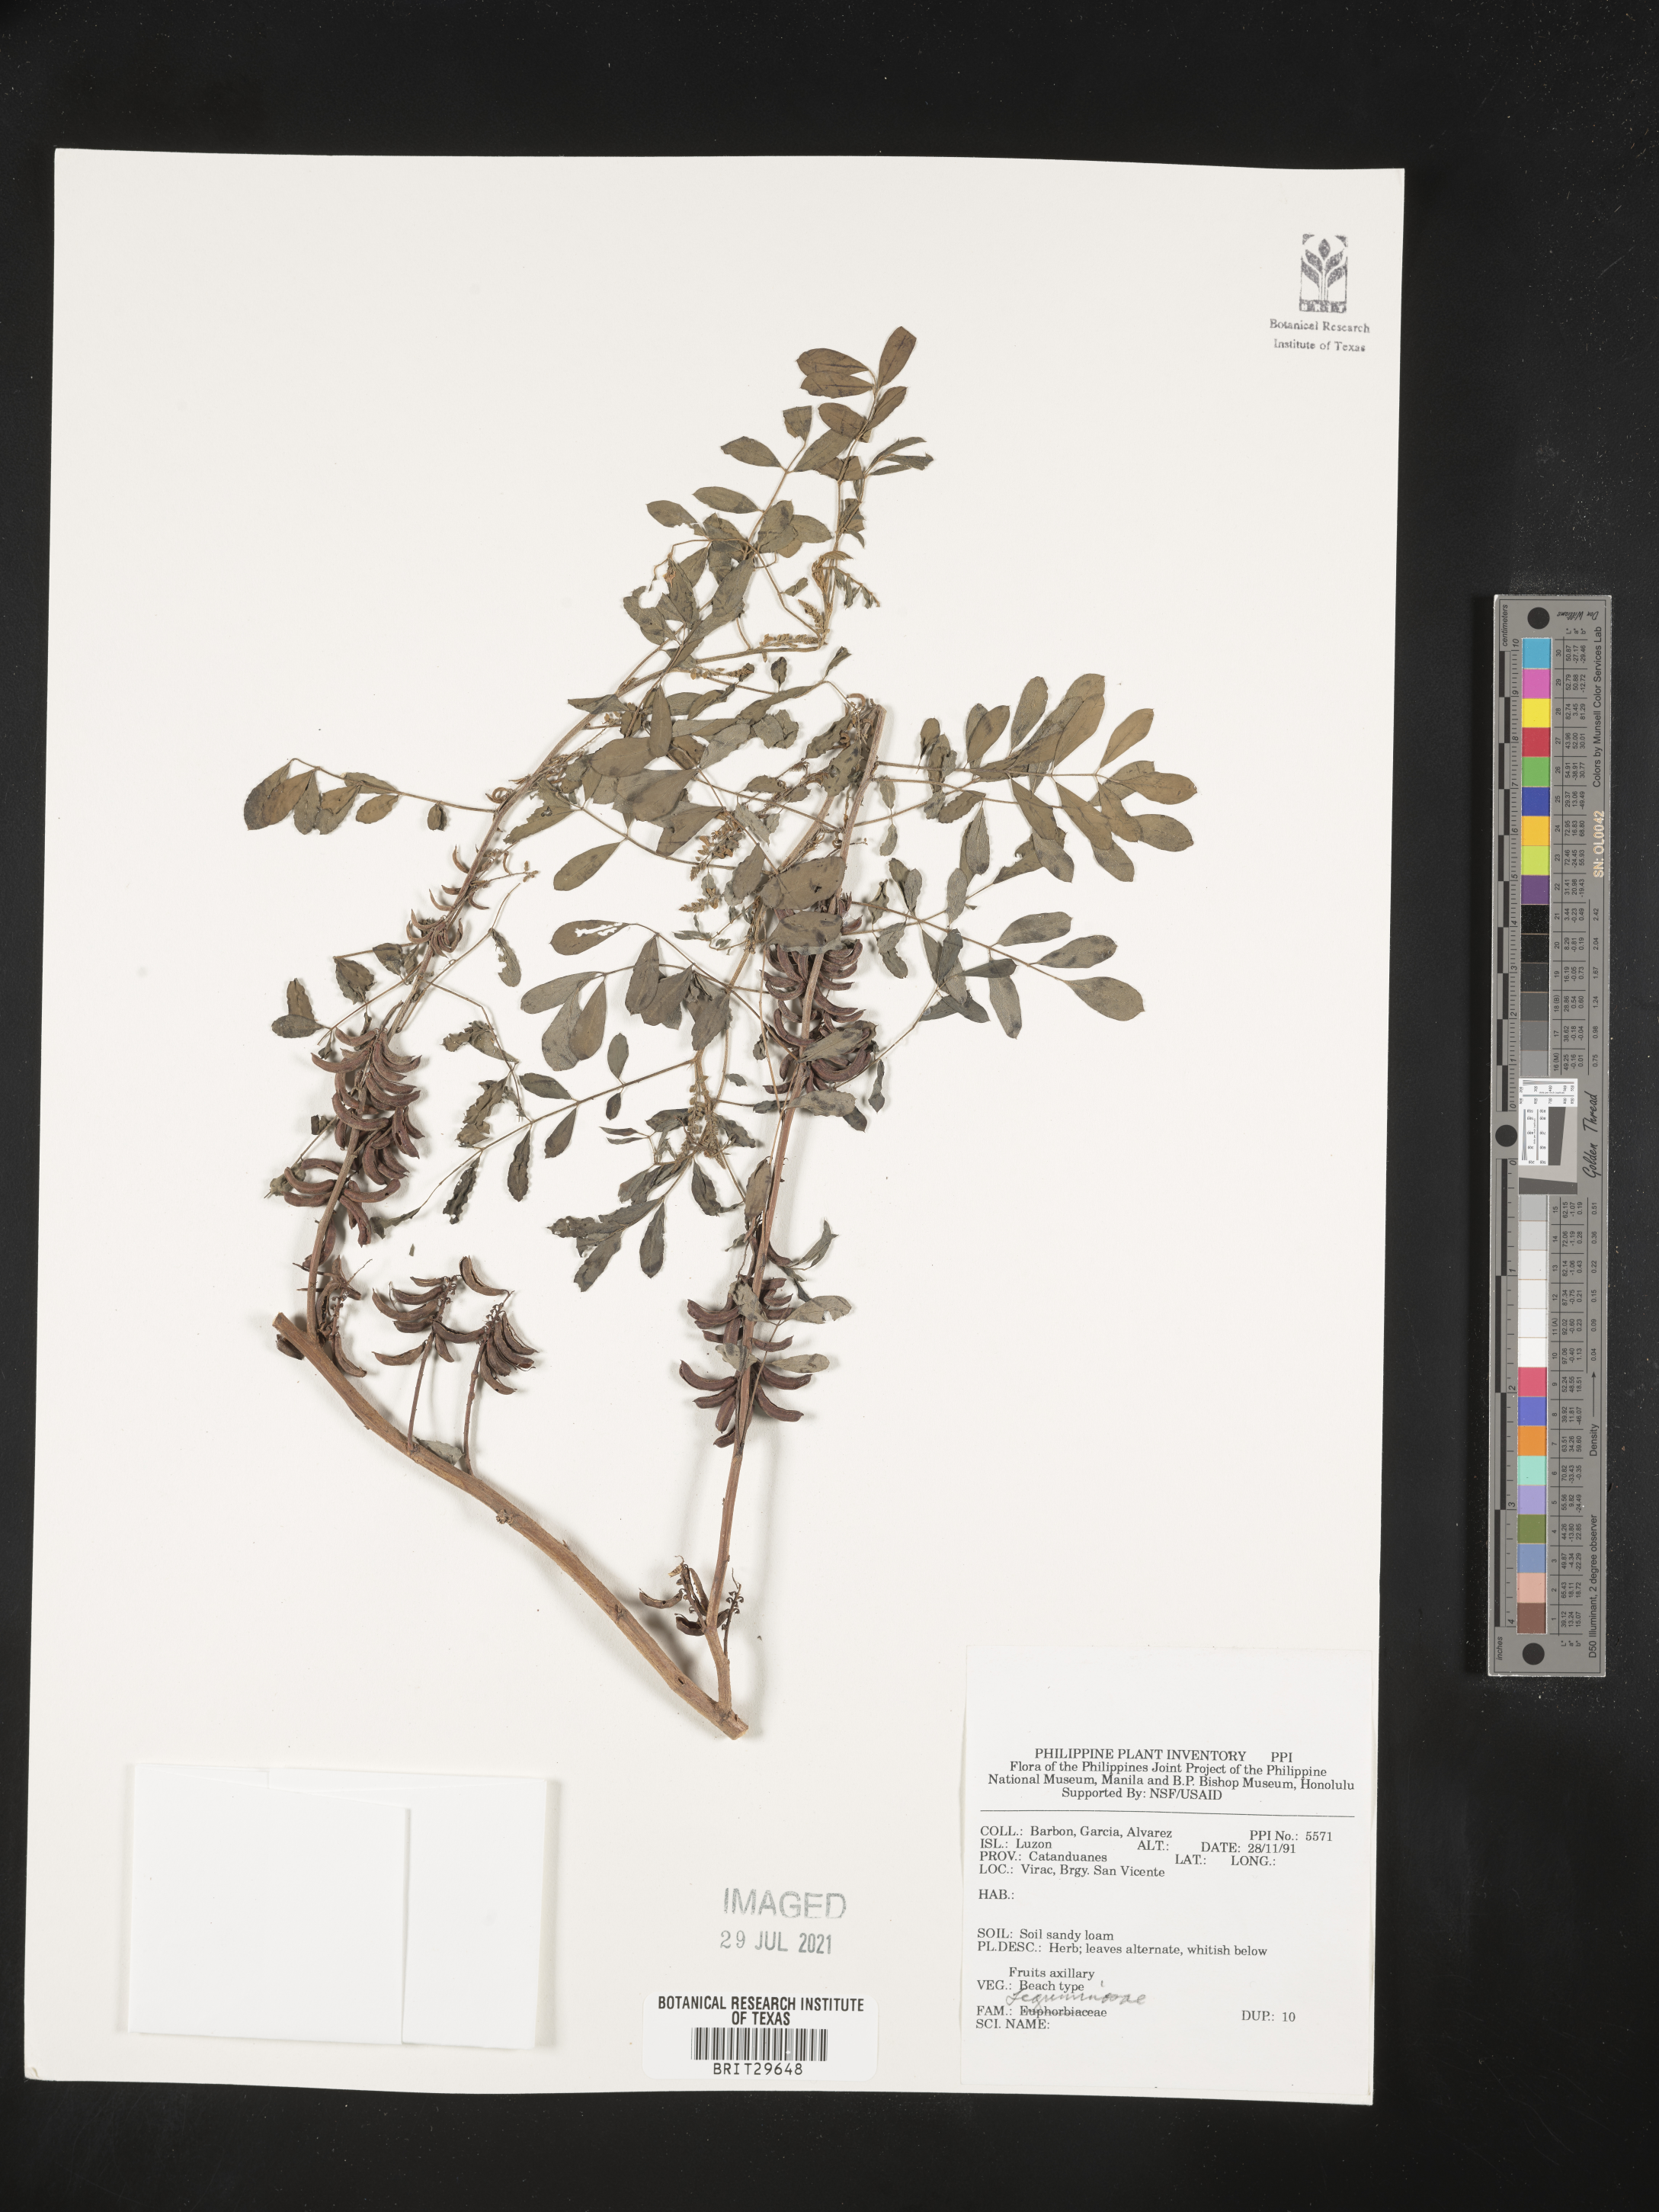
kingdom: Plantae
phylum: Tracheophyta
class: Magnoliopsida
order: Fabales
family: Fabaceae
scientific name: Fabaceae
